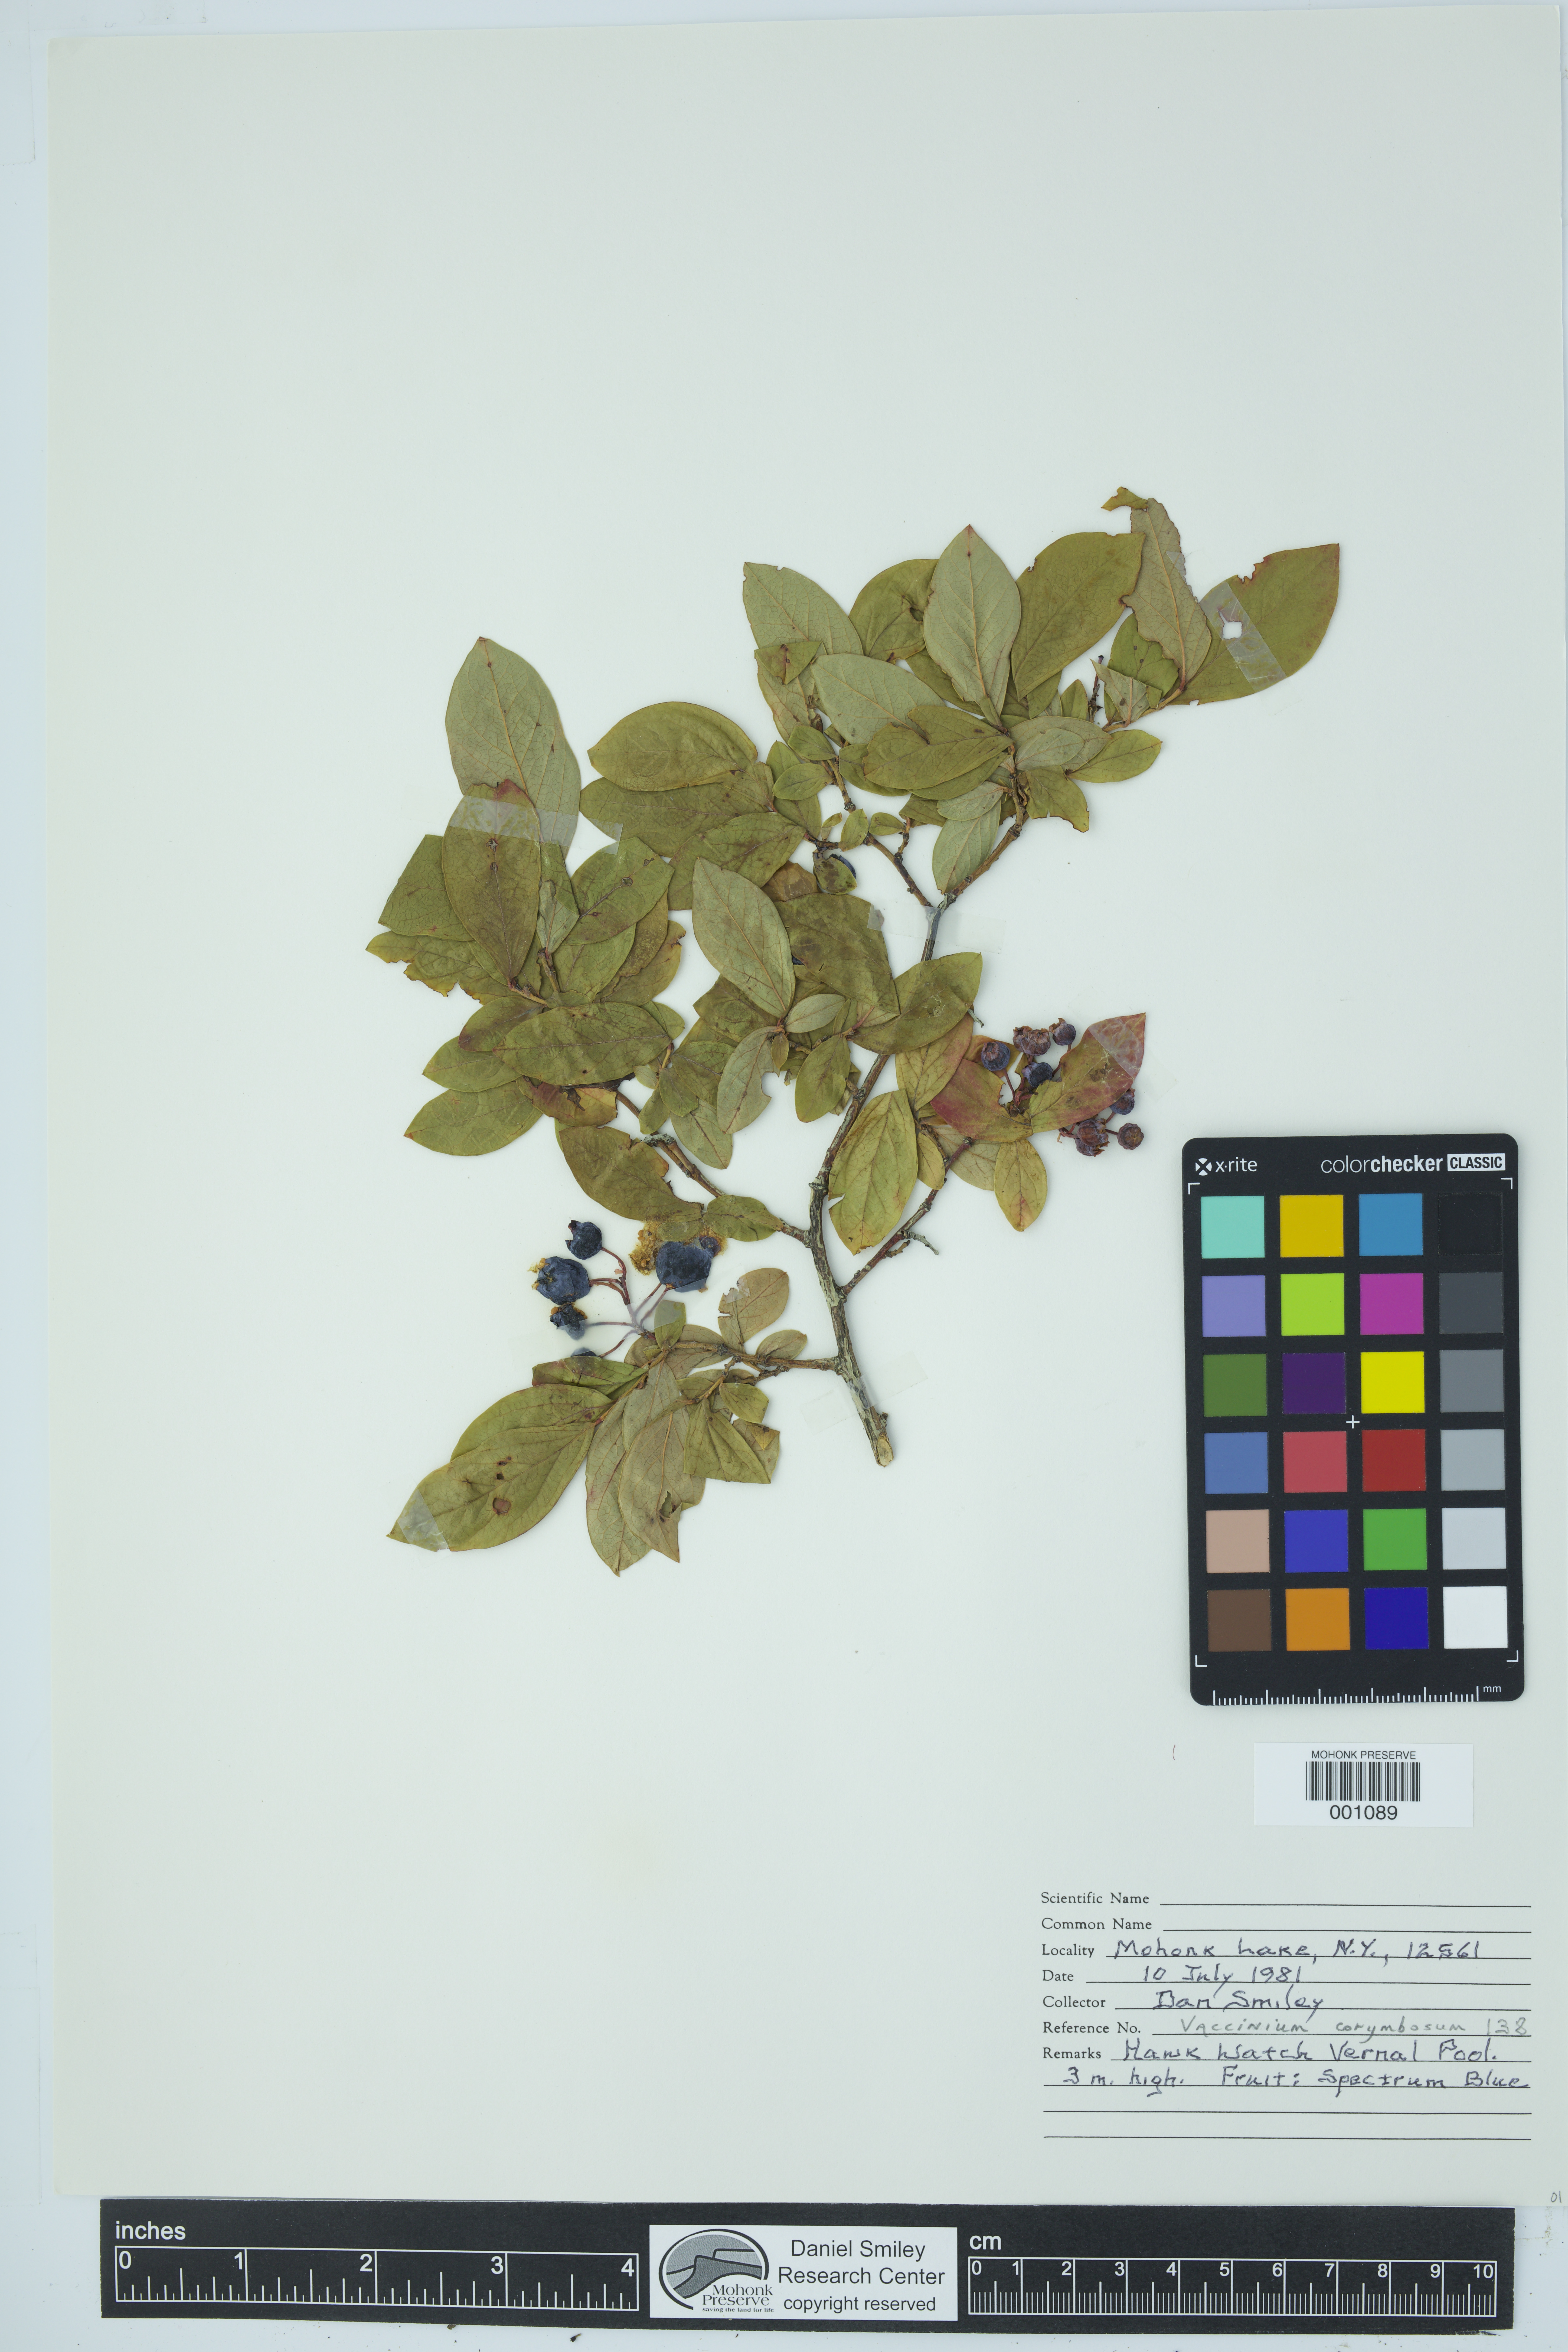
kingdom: Plantae
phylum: Tracheophyta
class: Magnoliopsida
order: Ericales
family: Ericaceae
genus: Vaccinium
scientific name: Vaccinium corymbosum
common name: Blueberry
